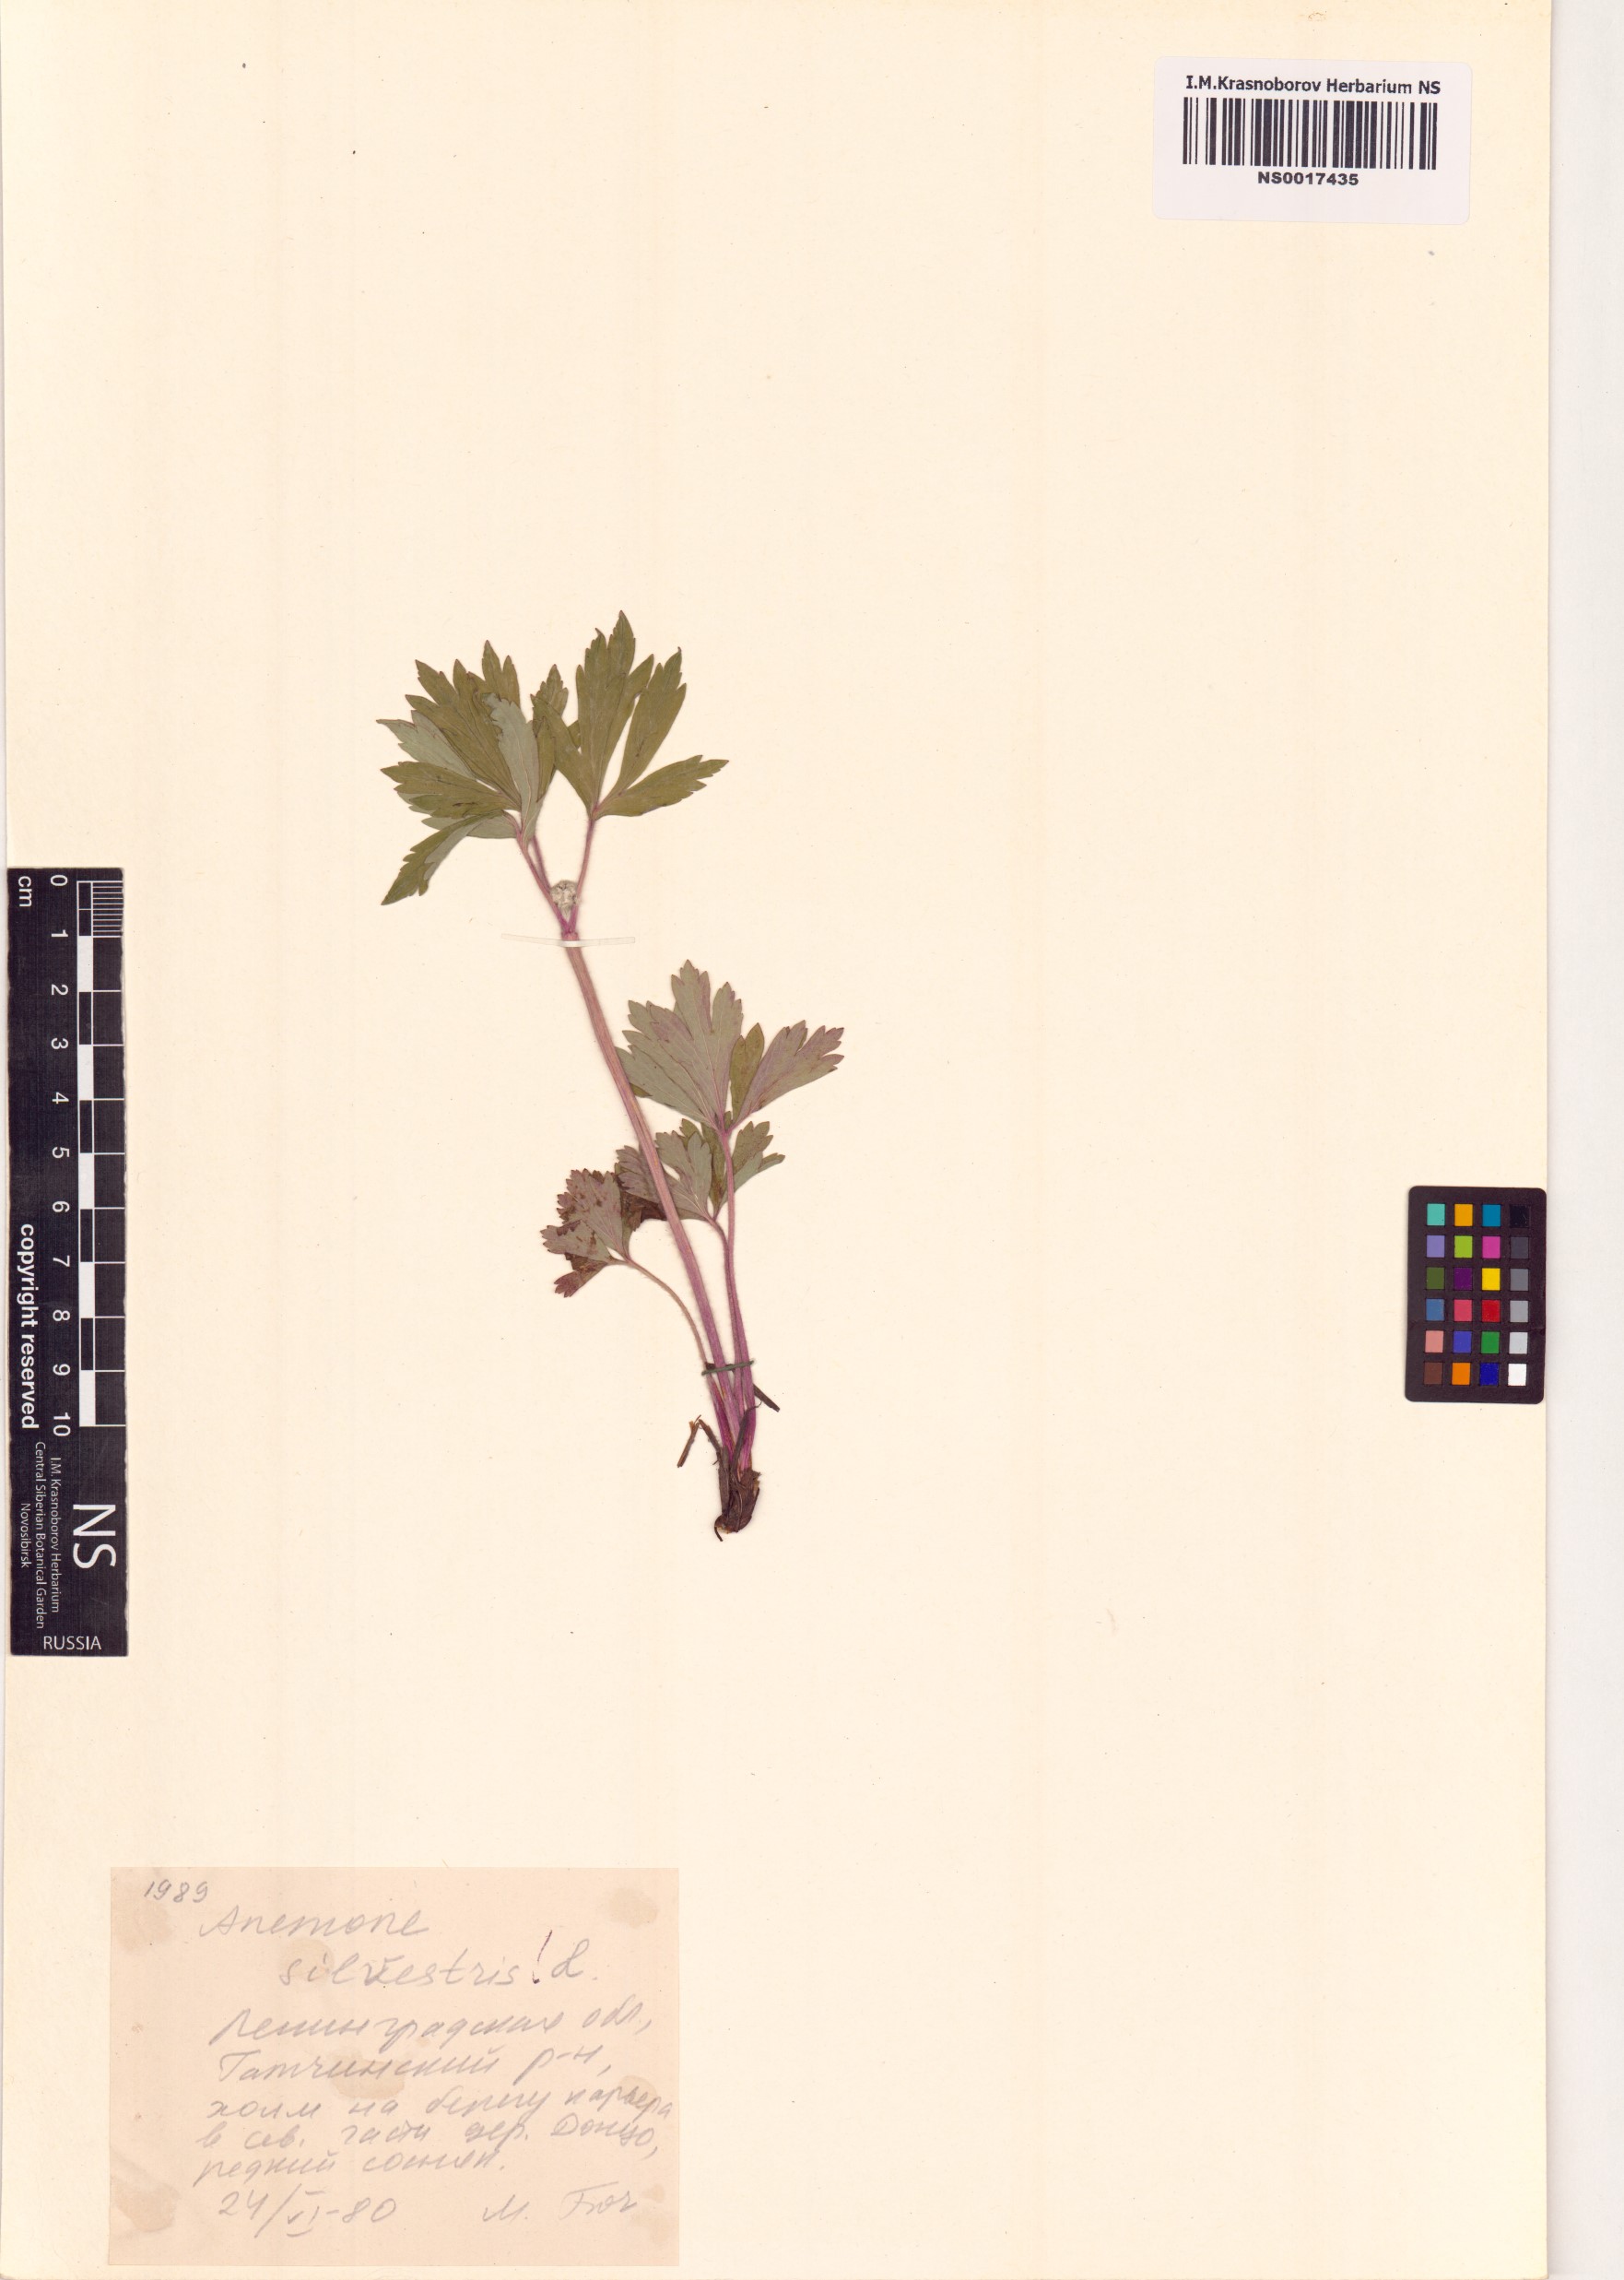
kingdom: Plantae
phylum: Tracheophyta
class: Magnoliopsida
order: Ranunculales
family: Ranunculaceae
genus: Anemone
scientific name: Anemone sylvestris
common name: Snowdrop anemone
